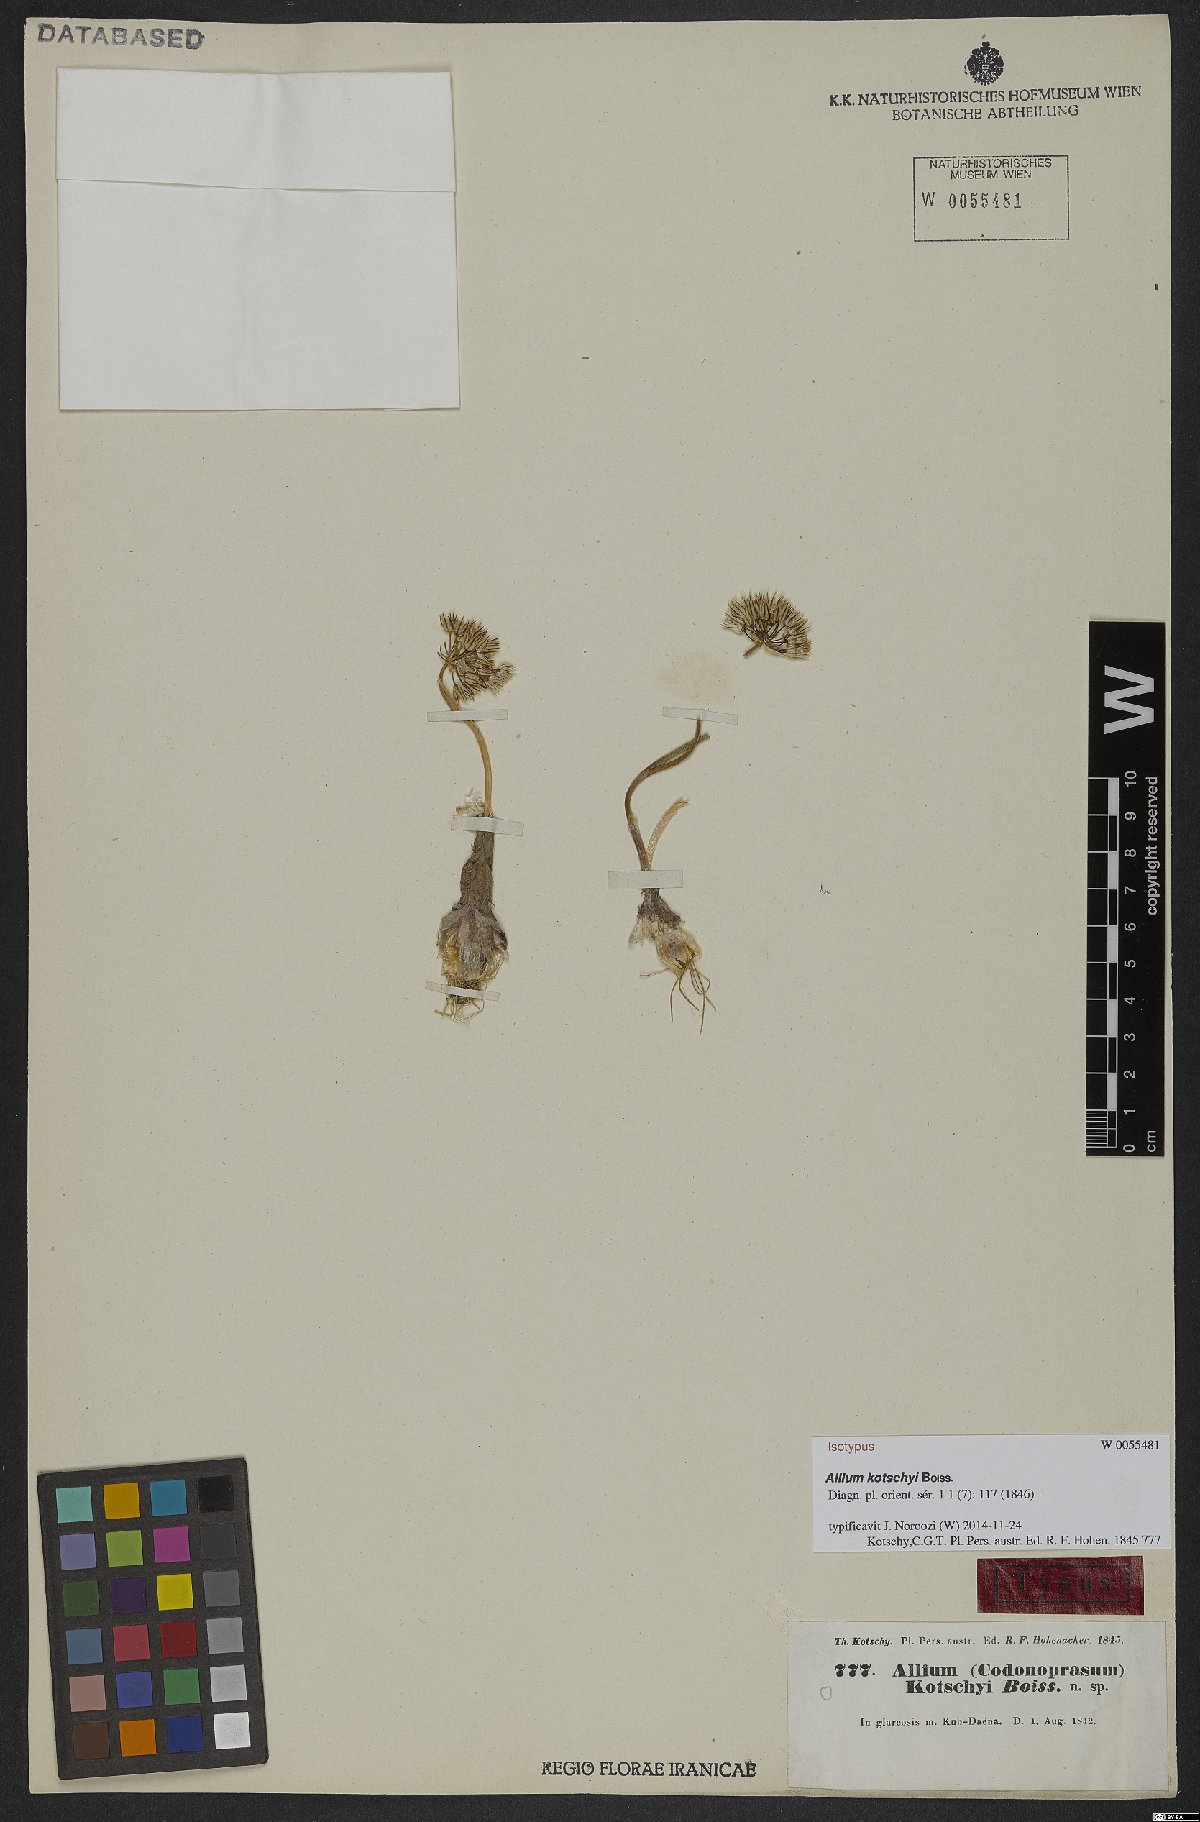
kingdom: Plantae
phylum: Tracheophyta
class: Liliopsida
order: Asparagales
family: Amaryllidaceae
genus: Allium
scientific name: Allium kotschyi
